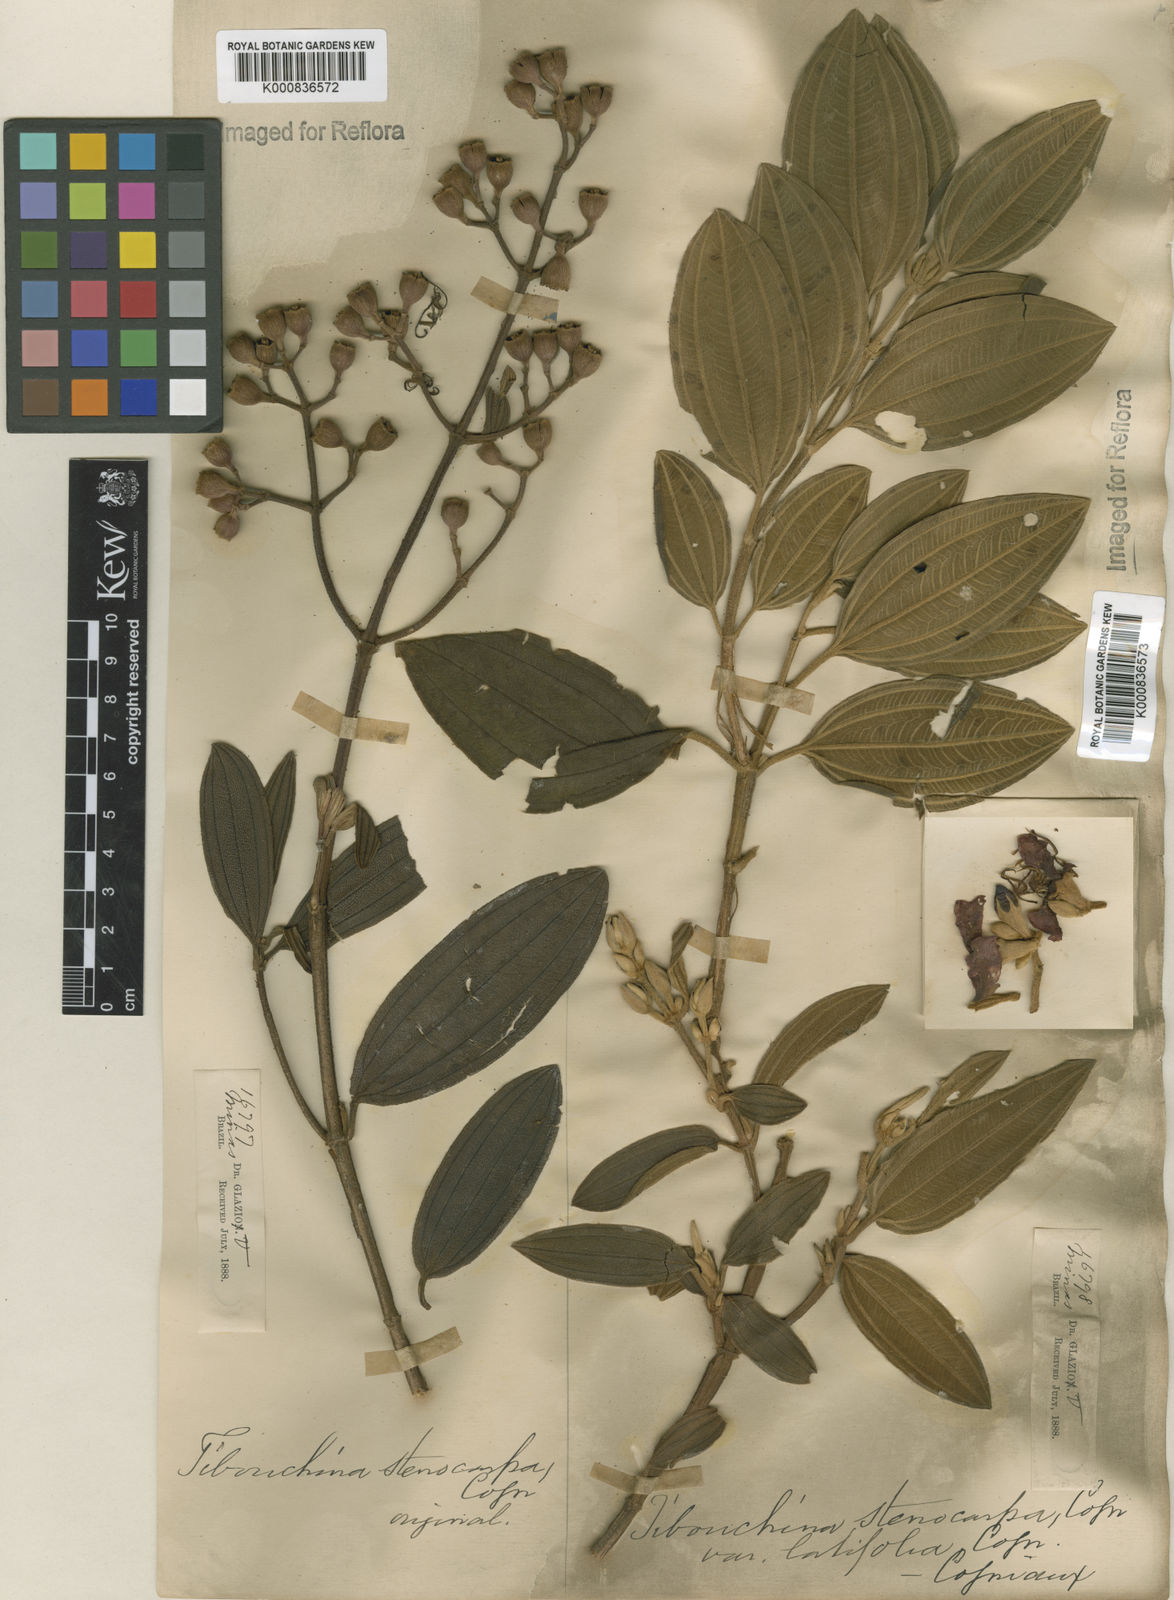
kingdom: Plantae
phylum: Tracheophyta
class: Magnoliopsida
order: Myrtales
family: Melastomataceae
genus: Pleroma
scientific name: Pleroma stenocarpum
